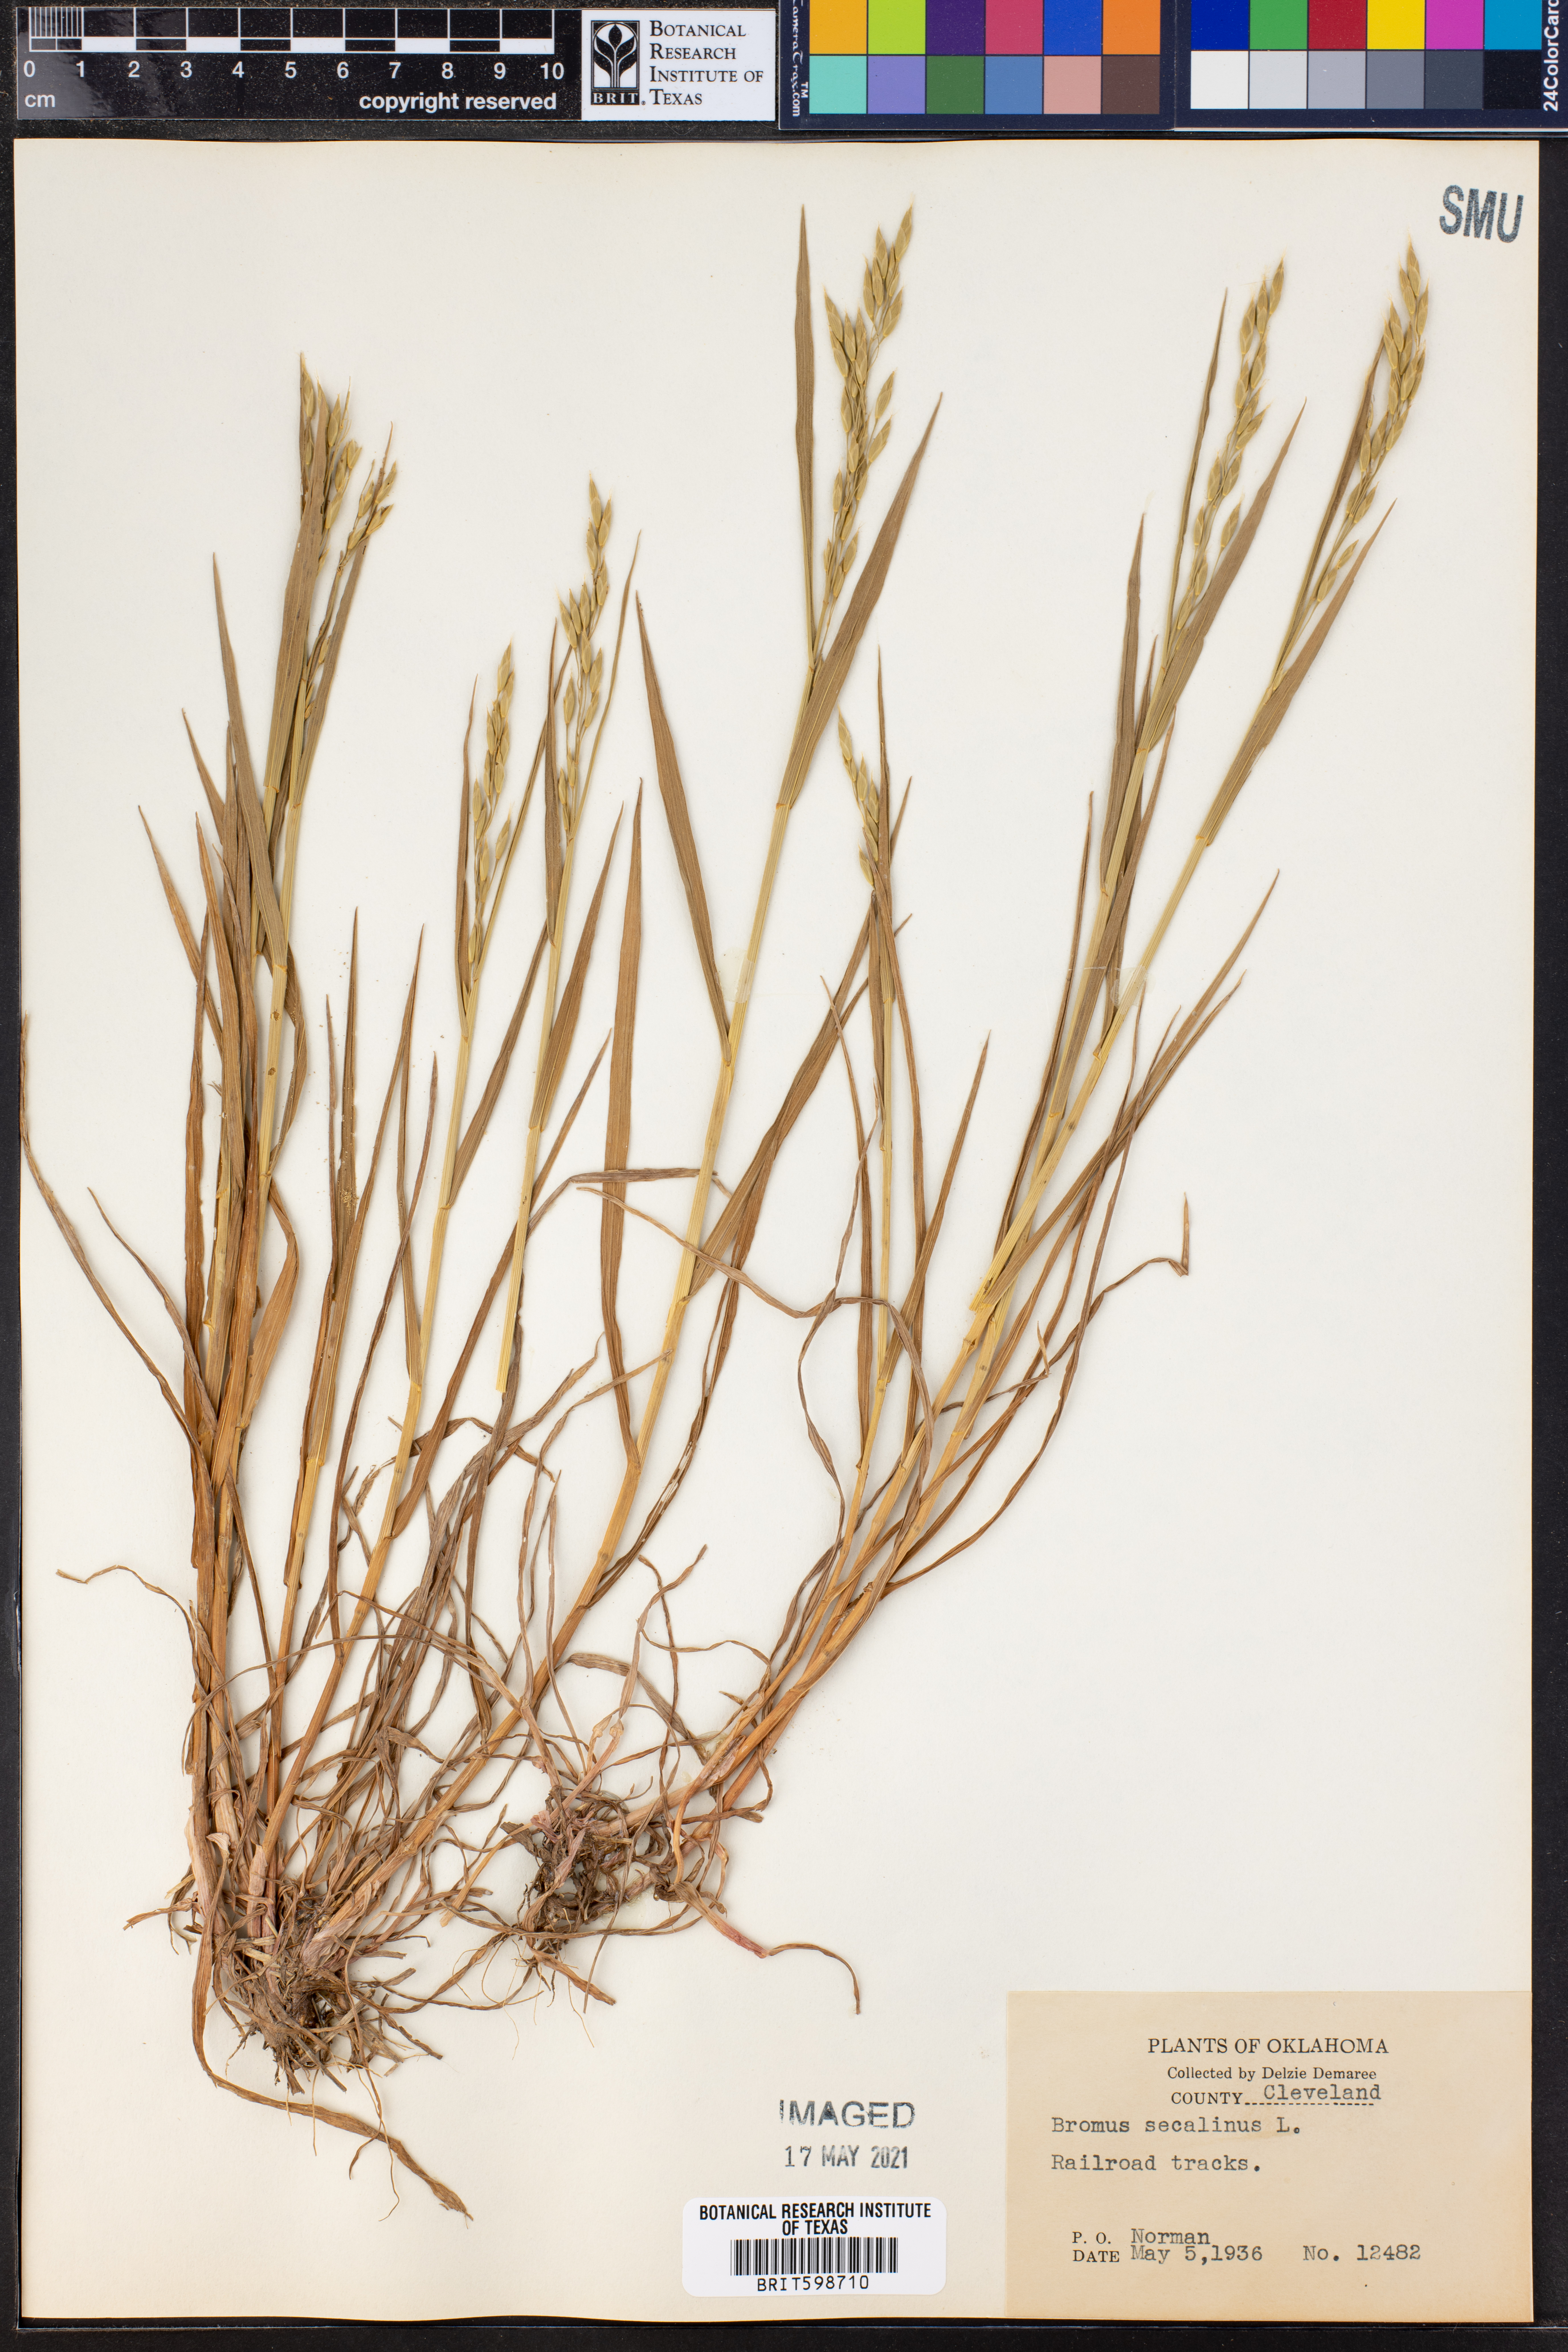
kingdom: Plantae
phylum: Tracheophyta
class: Liliopsida
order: Poales
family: Poaceae
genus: Bromus
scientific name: Bromus secalinus
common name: Rye brome
